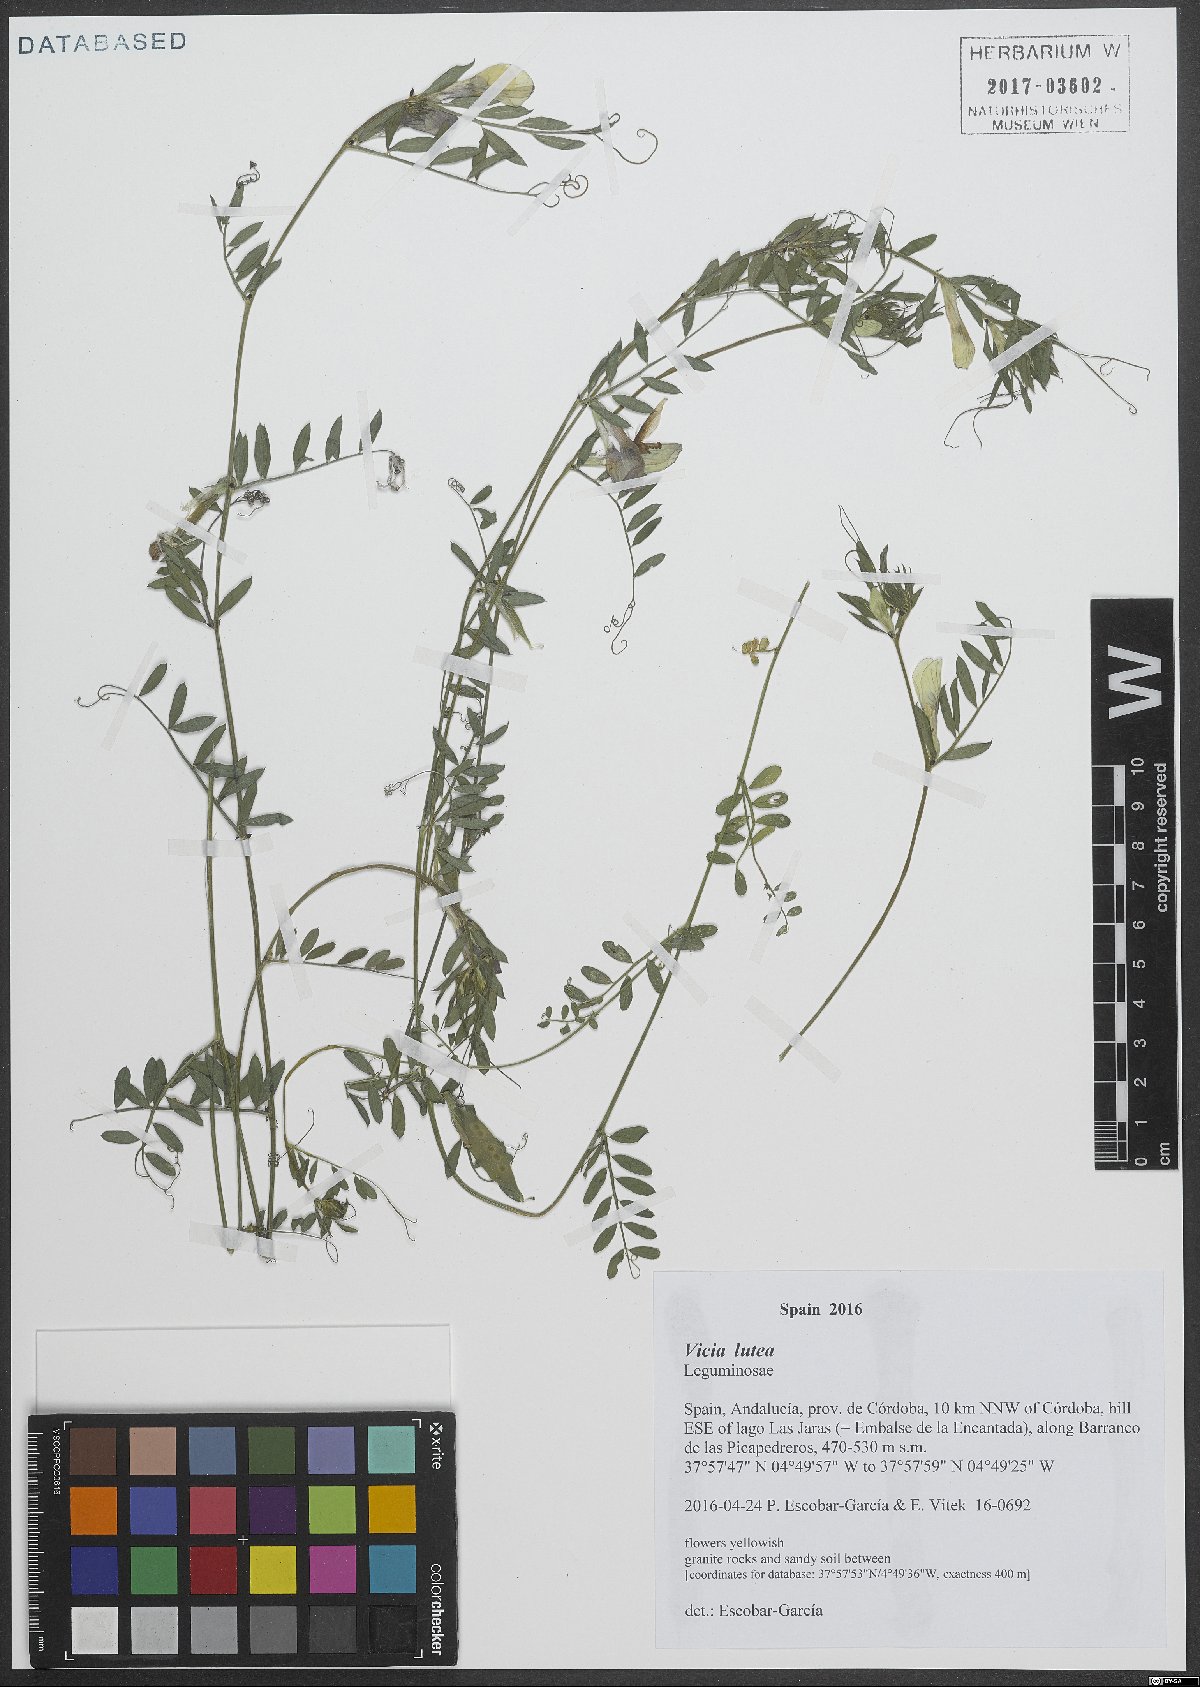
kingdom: Plantae
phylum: Tracheophyta
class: Magnoliopsida
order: Fabales
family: Fabaceae
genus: Vicia
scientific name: Vicia lutea
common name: Smooth yellow vetch
